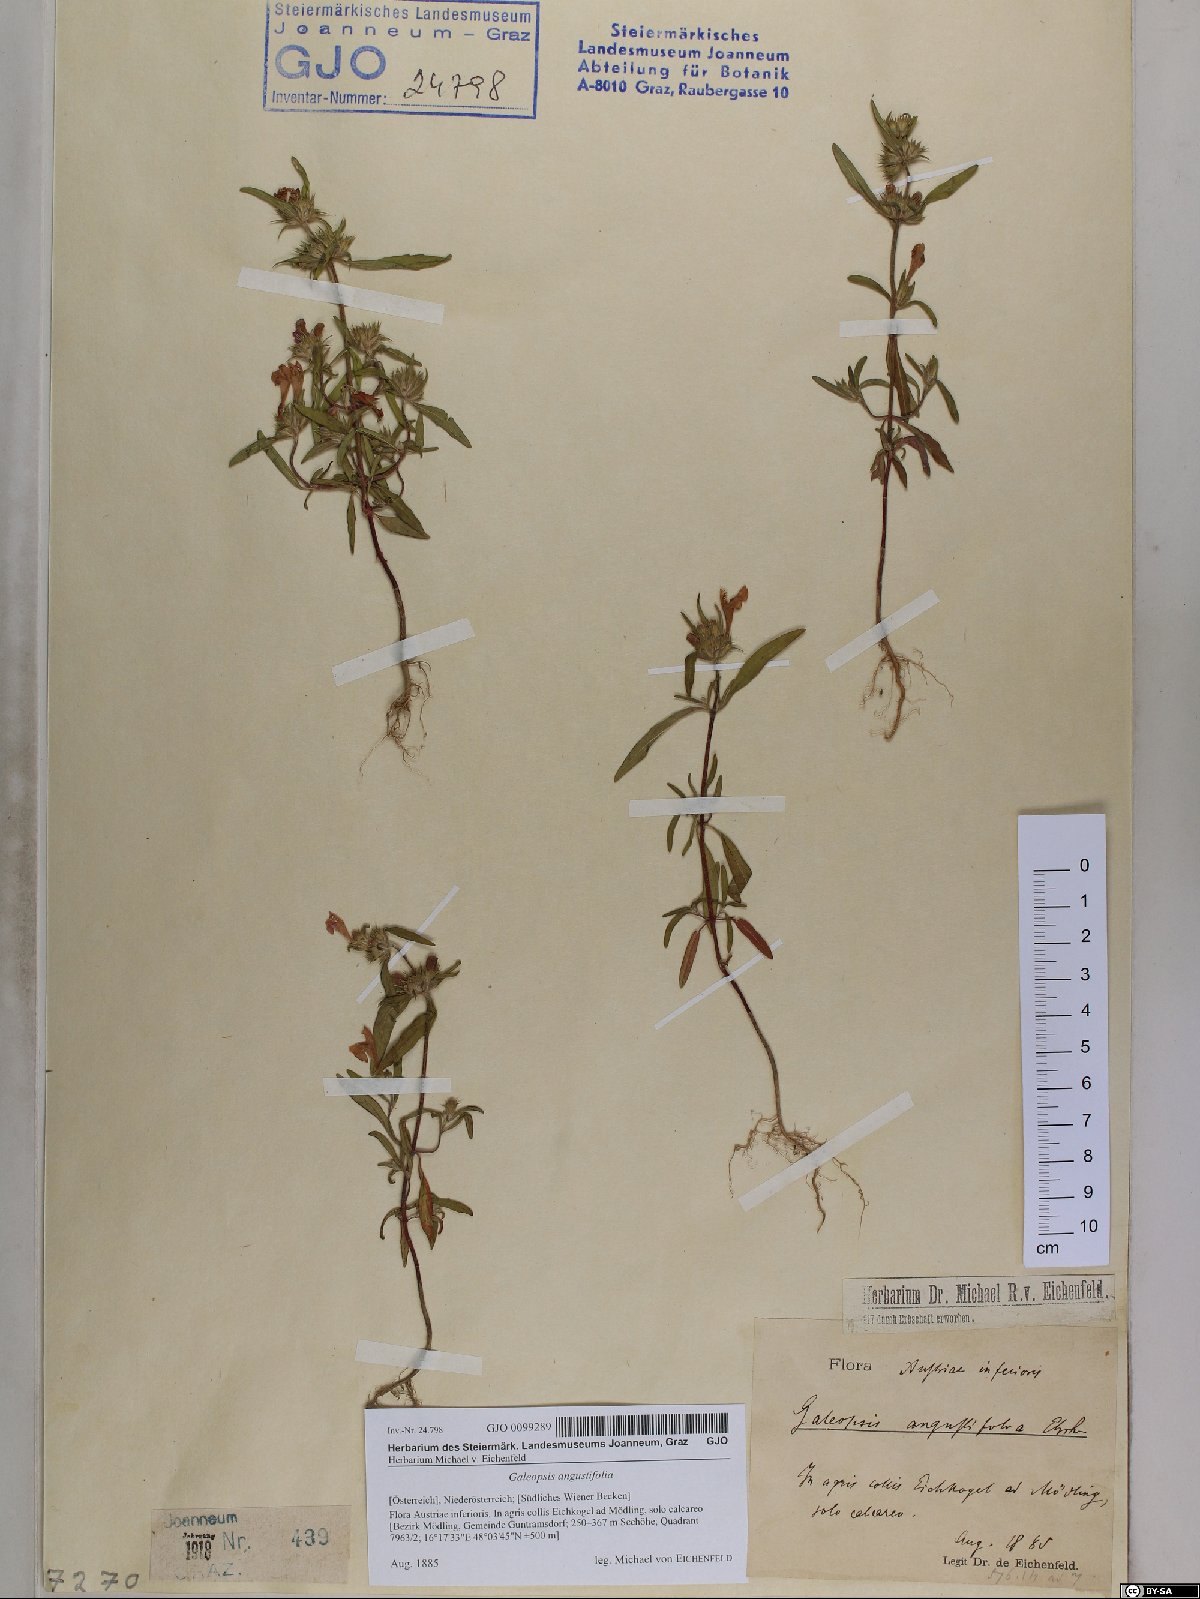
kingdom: Plantae
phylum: Tracheophyta
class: Magnoliopsida
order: Lamiales
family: Lamiaceae
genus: Galeopsis
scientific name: Galeopsis angustifolia
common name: Red hemp-nettle
